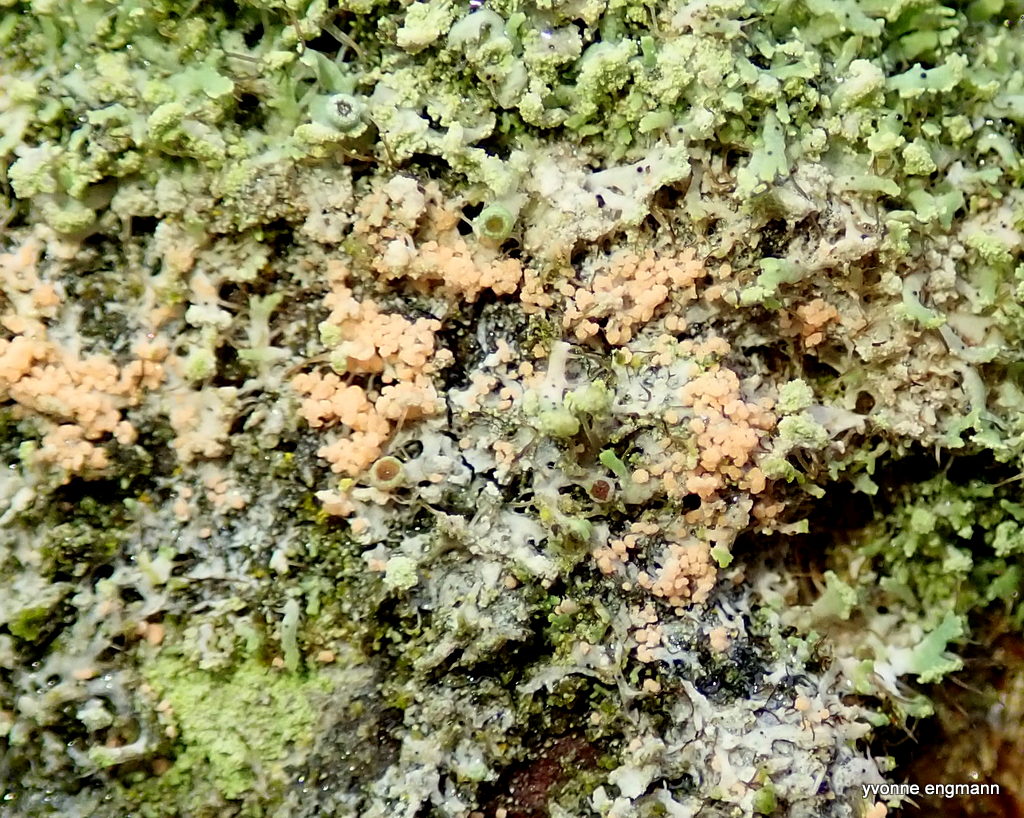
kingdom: Fungi
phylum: Basidiomycota
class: Agaricomycetes
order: Corticiales
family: Corticiaceae
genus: Erythricium
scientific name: Erythricium aurantiacum
